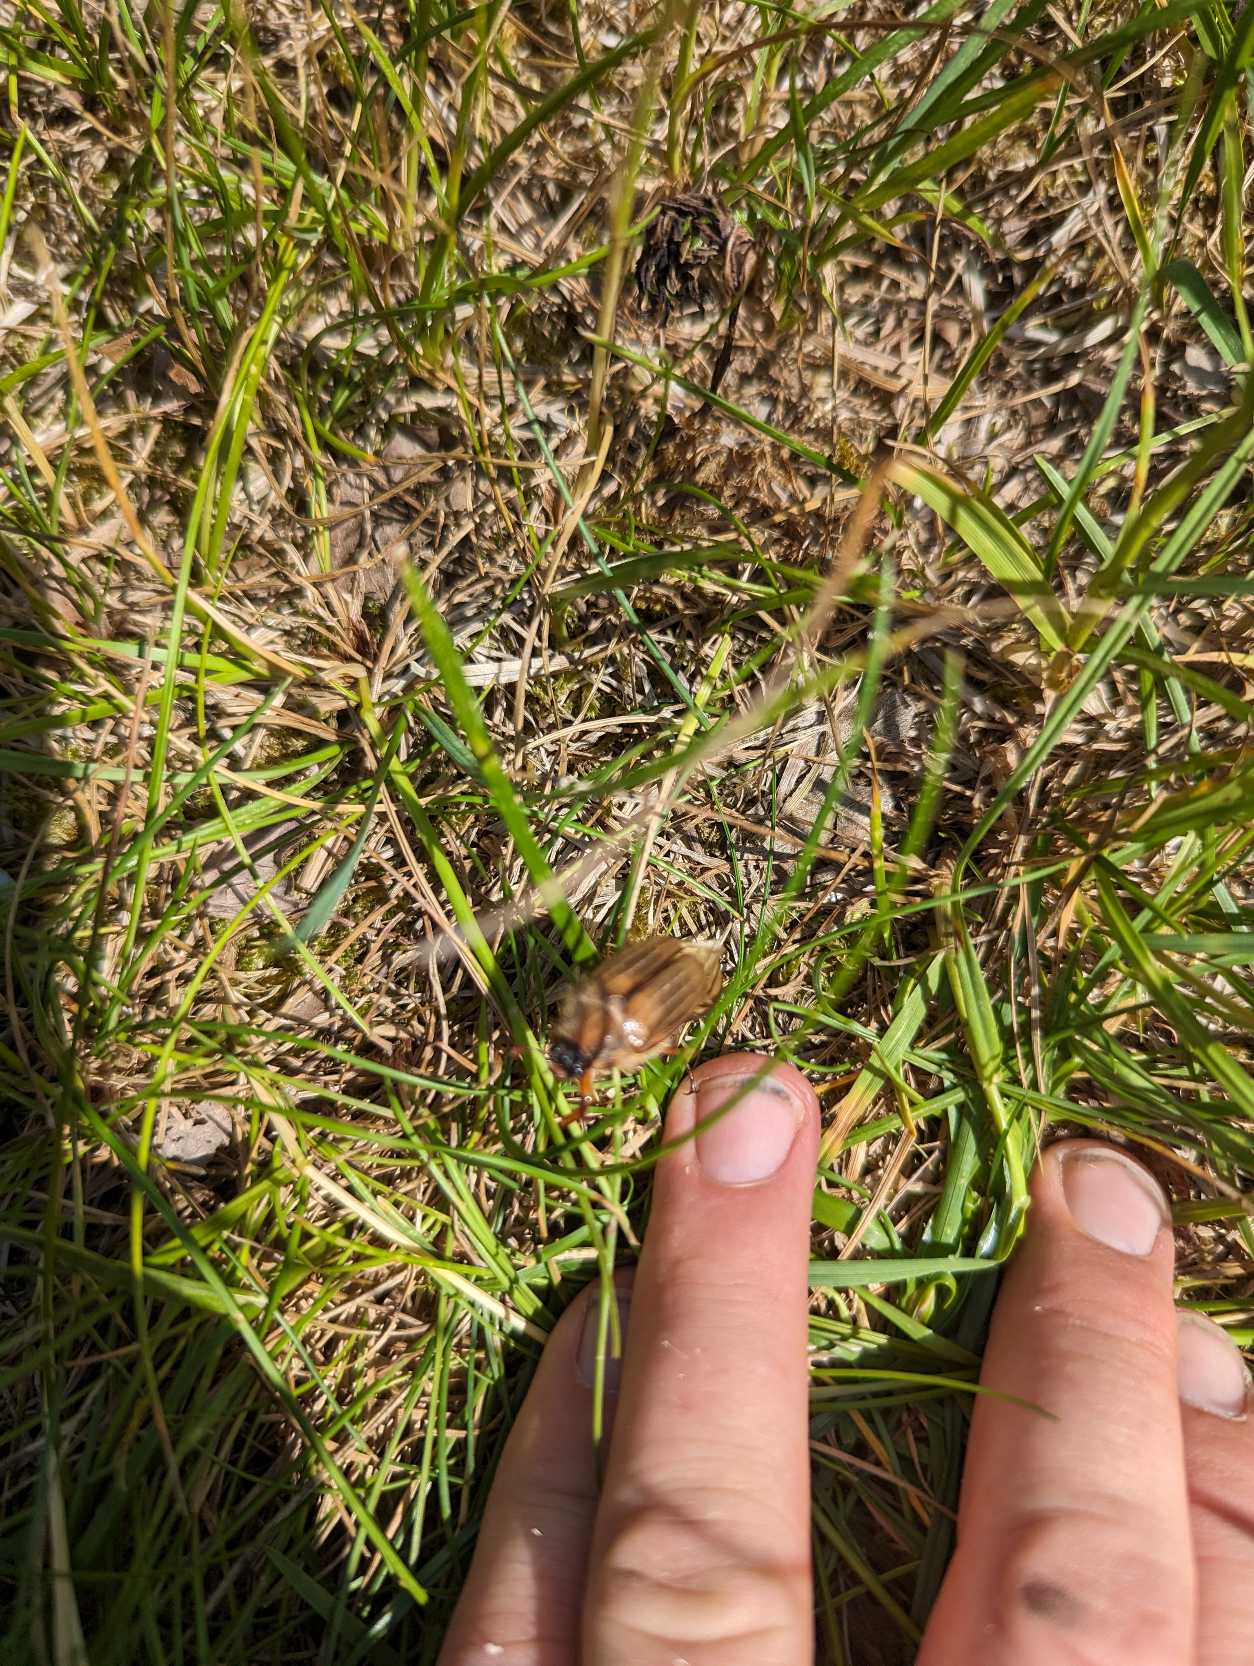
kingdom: Animalia
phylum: Arthropoda
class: Insecta
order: Coleoptera
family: Scarabaeidae
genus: Amphimallon
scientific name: Amphimallon solstitiale
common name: Sankthansoldenborre
